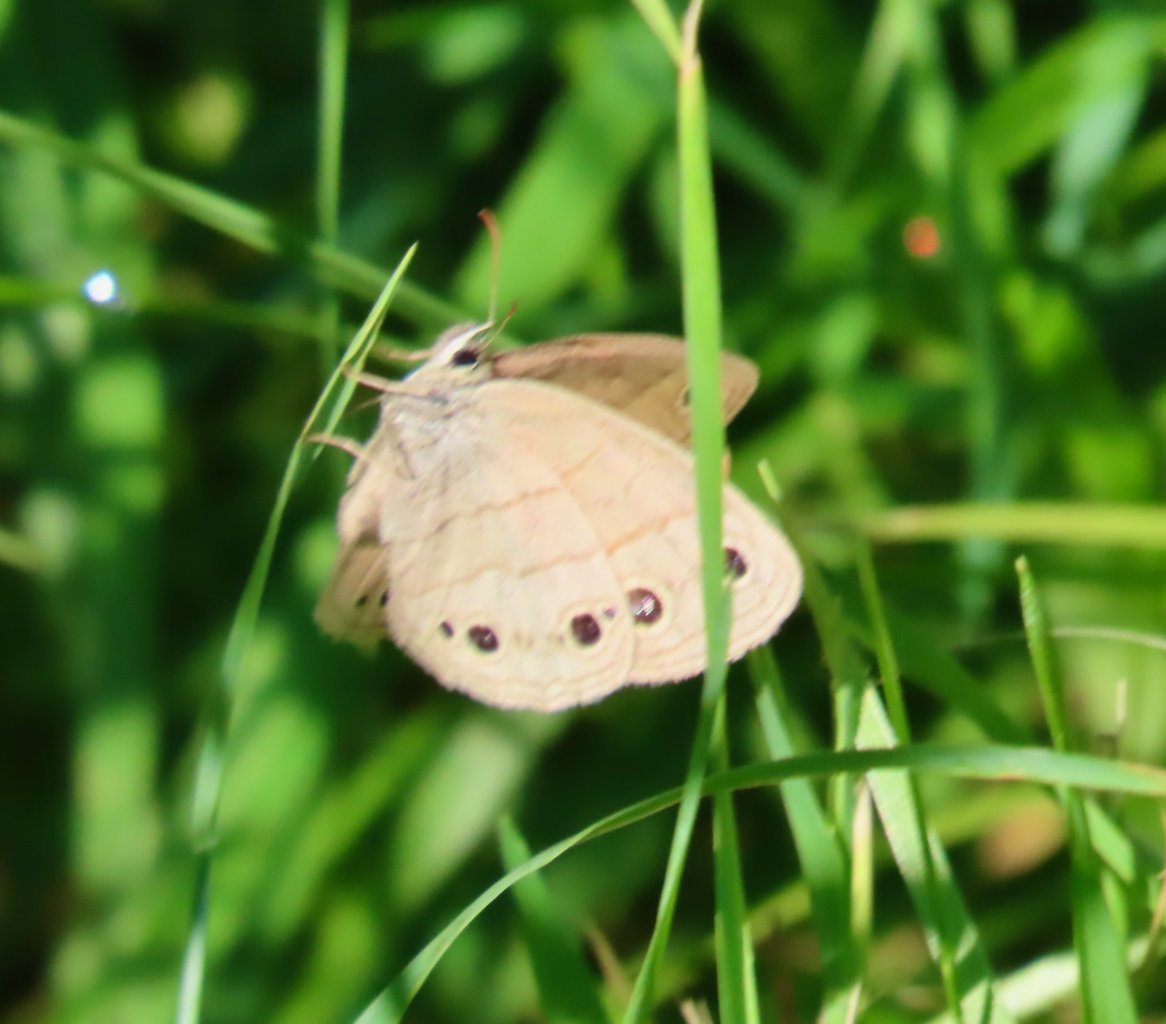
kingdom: Animalia
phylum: Arthropoda
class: Insecta
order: Lepidoptera
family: Nymphalidae
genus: Euptychia
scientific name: Euptychia cymela
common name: Little Wood Satyr
